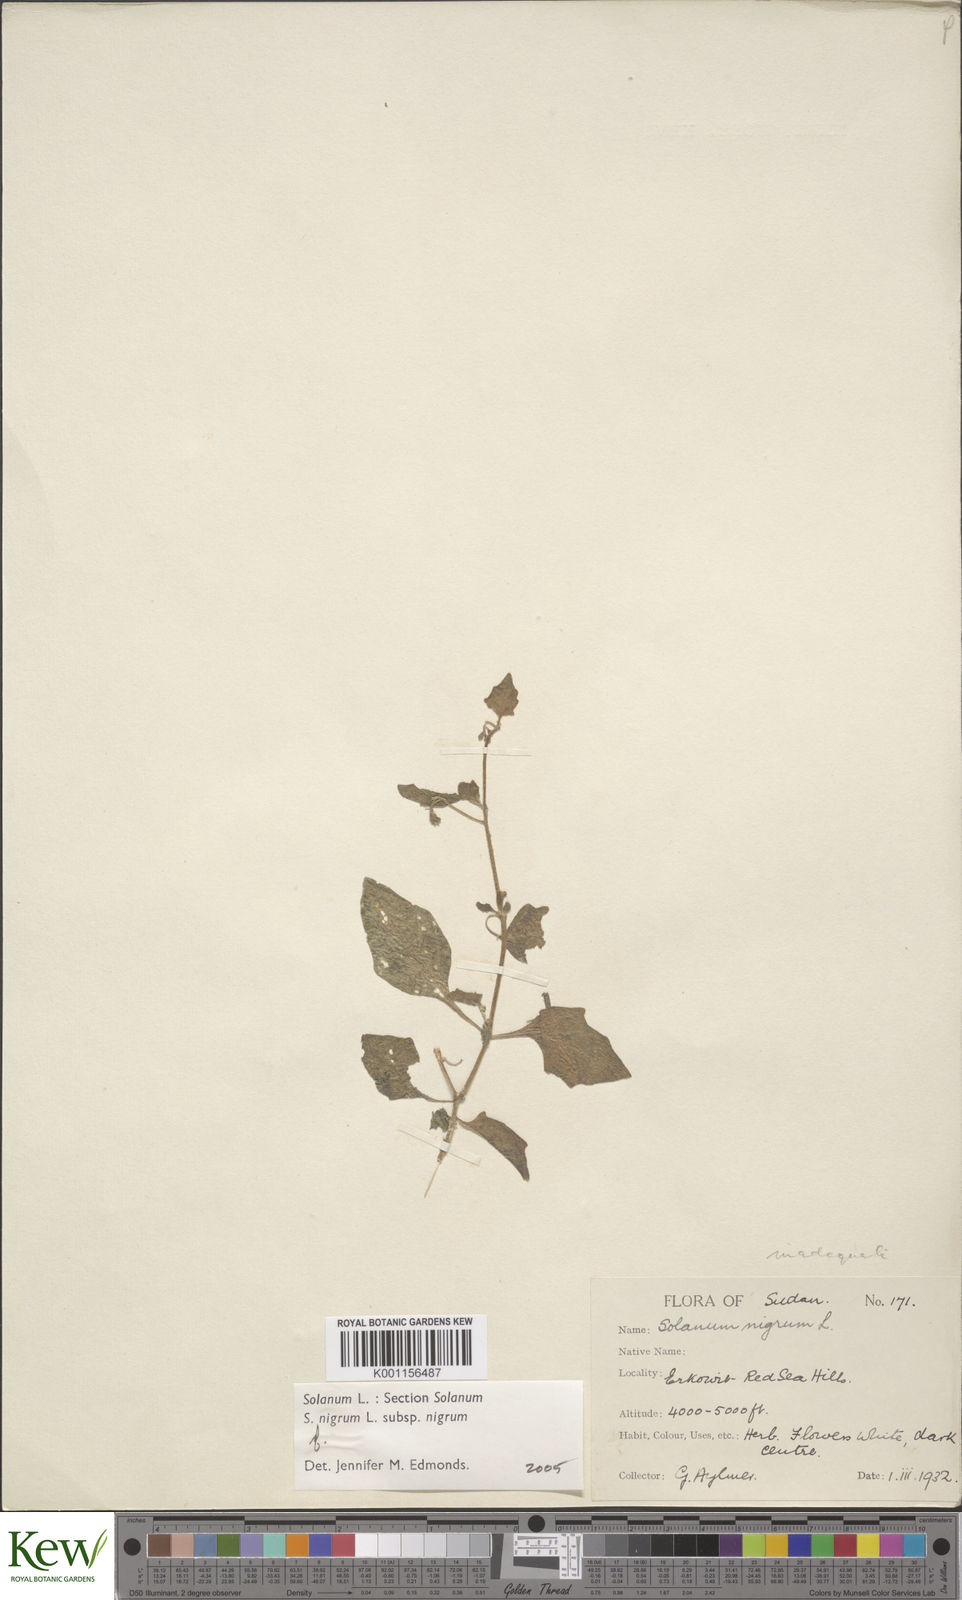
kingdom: Plantae
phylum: Tracheophyta
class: Magnoliopsida
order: Solanales
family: Solanaceae
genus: Solanum
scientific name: Solanum villosum
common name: Red nightshade
